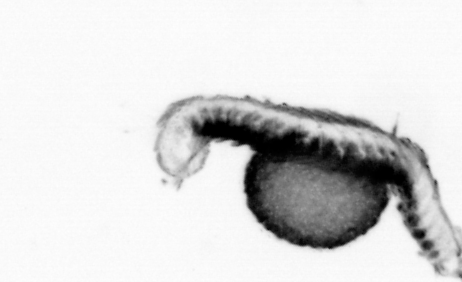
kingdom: Animalia
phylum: Annelida
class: Polychaeta
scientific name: Polychaeta
